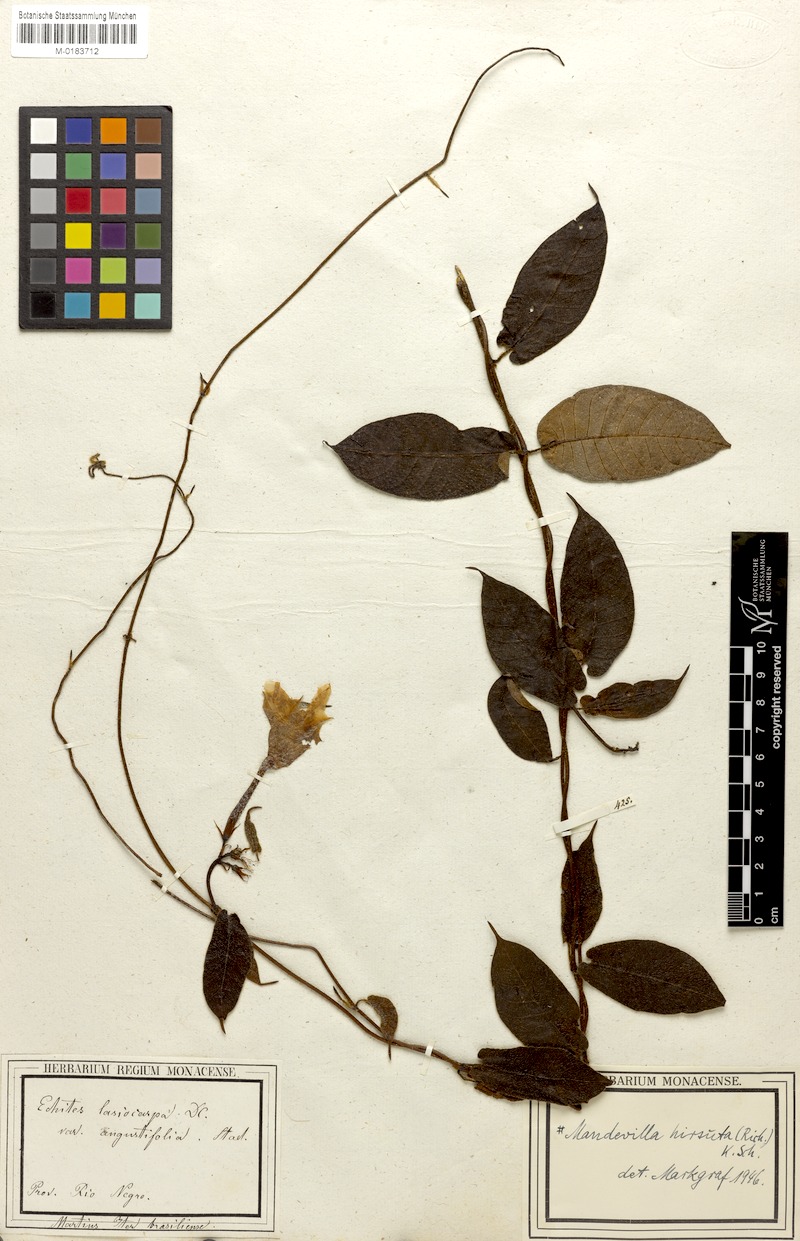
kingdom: Plantae
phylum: Tracheophyta
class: Magnoliopsida
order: Gentianales
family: Apocynaceae
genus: Mandevilla
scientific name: Mandevilla hirsuta
